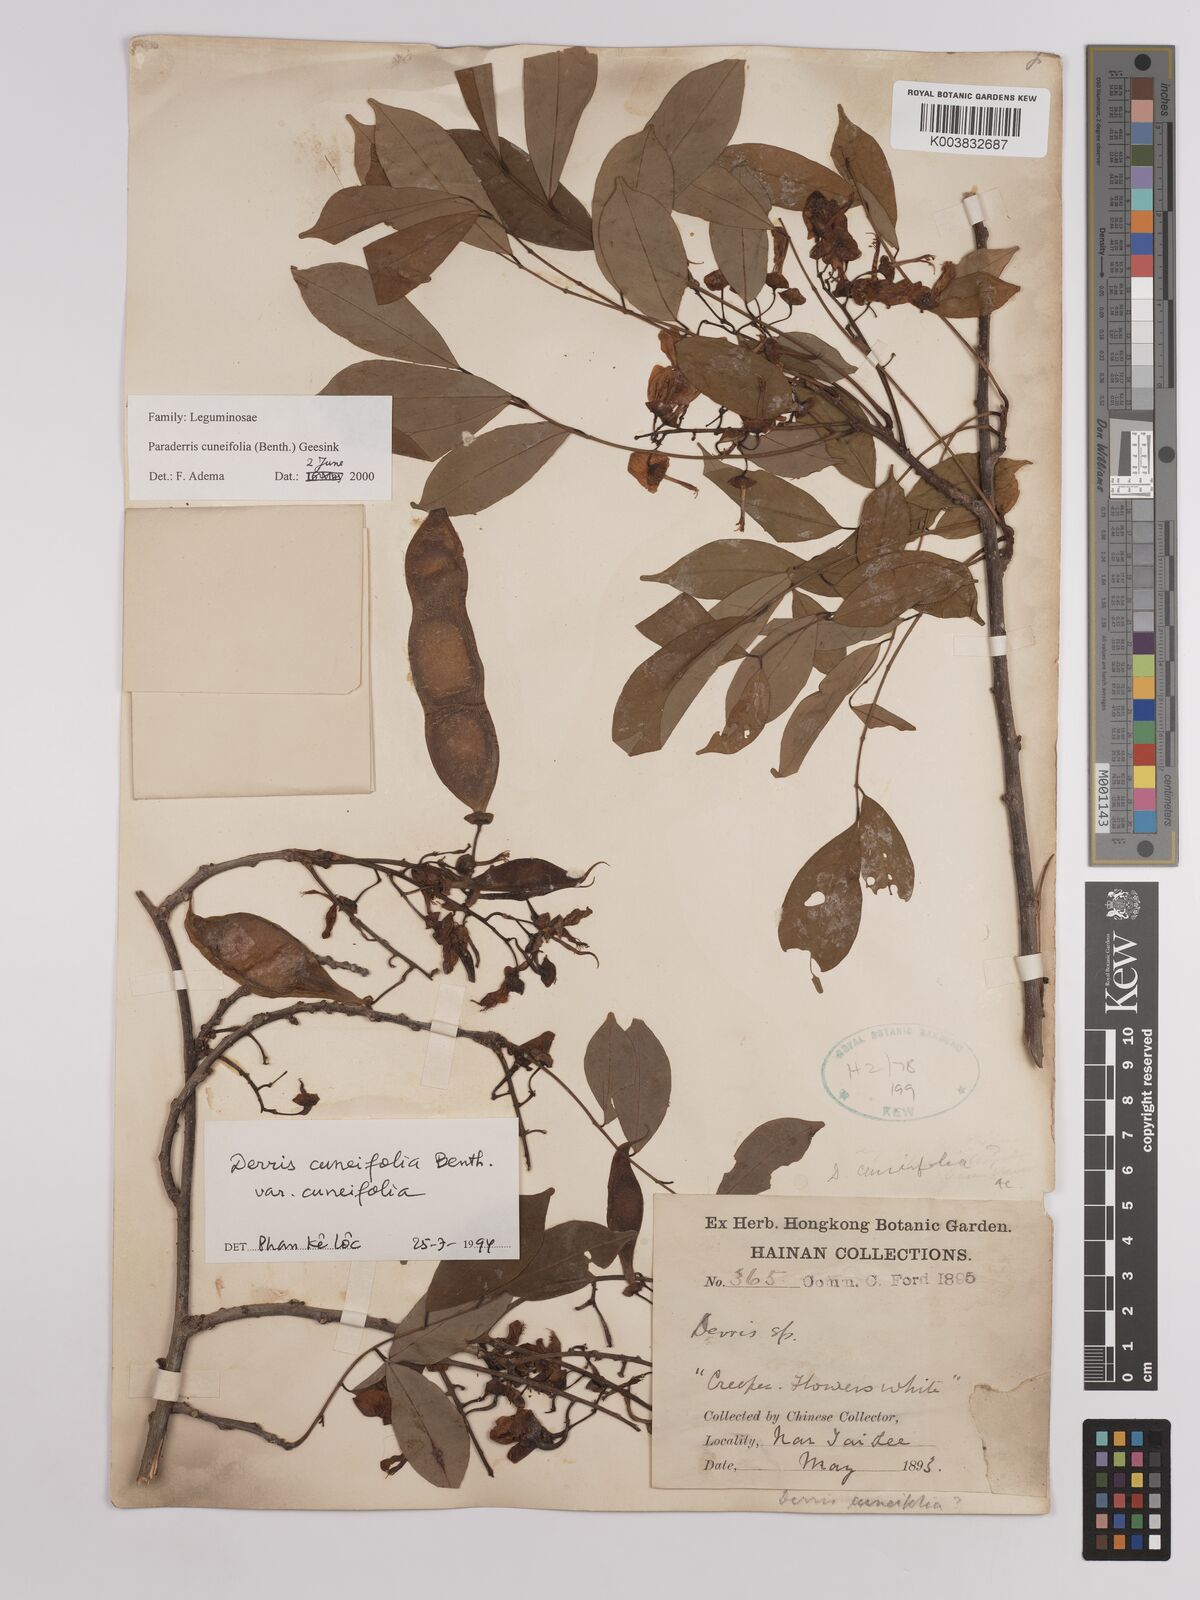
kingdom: Plantae
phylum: Tracheophyta
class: Magnoliopsida
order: Fabales
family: Fabaceae
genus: Derris
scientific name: Derris cuneifolia
